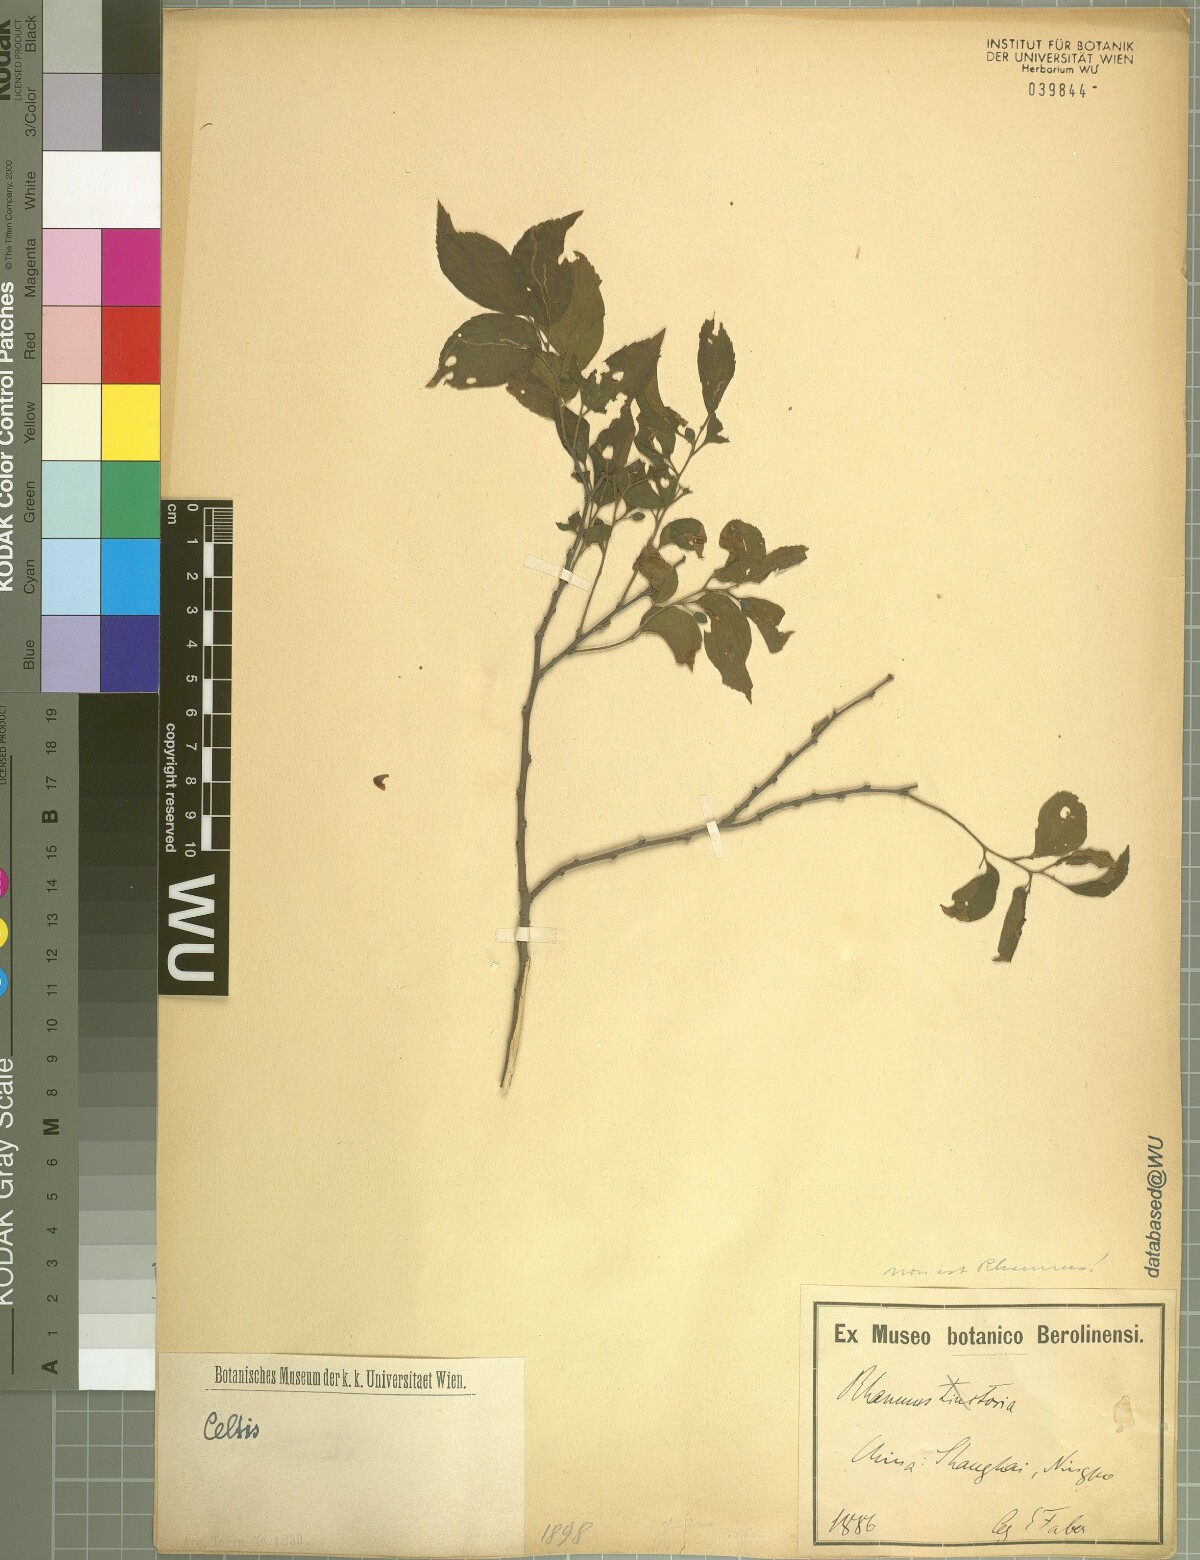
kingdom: Plantae
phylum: Tracheophyta
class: Magnoliopsida
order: Rosales
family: Cannabaceae
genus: Celtis
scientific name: Celtis
